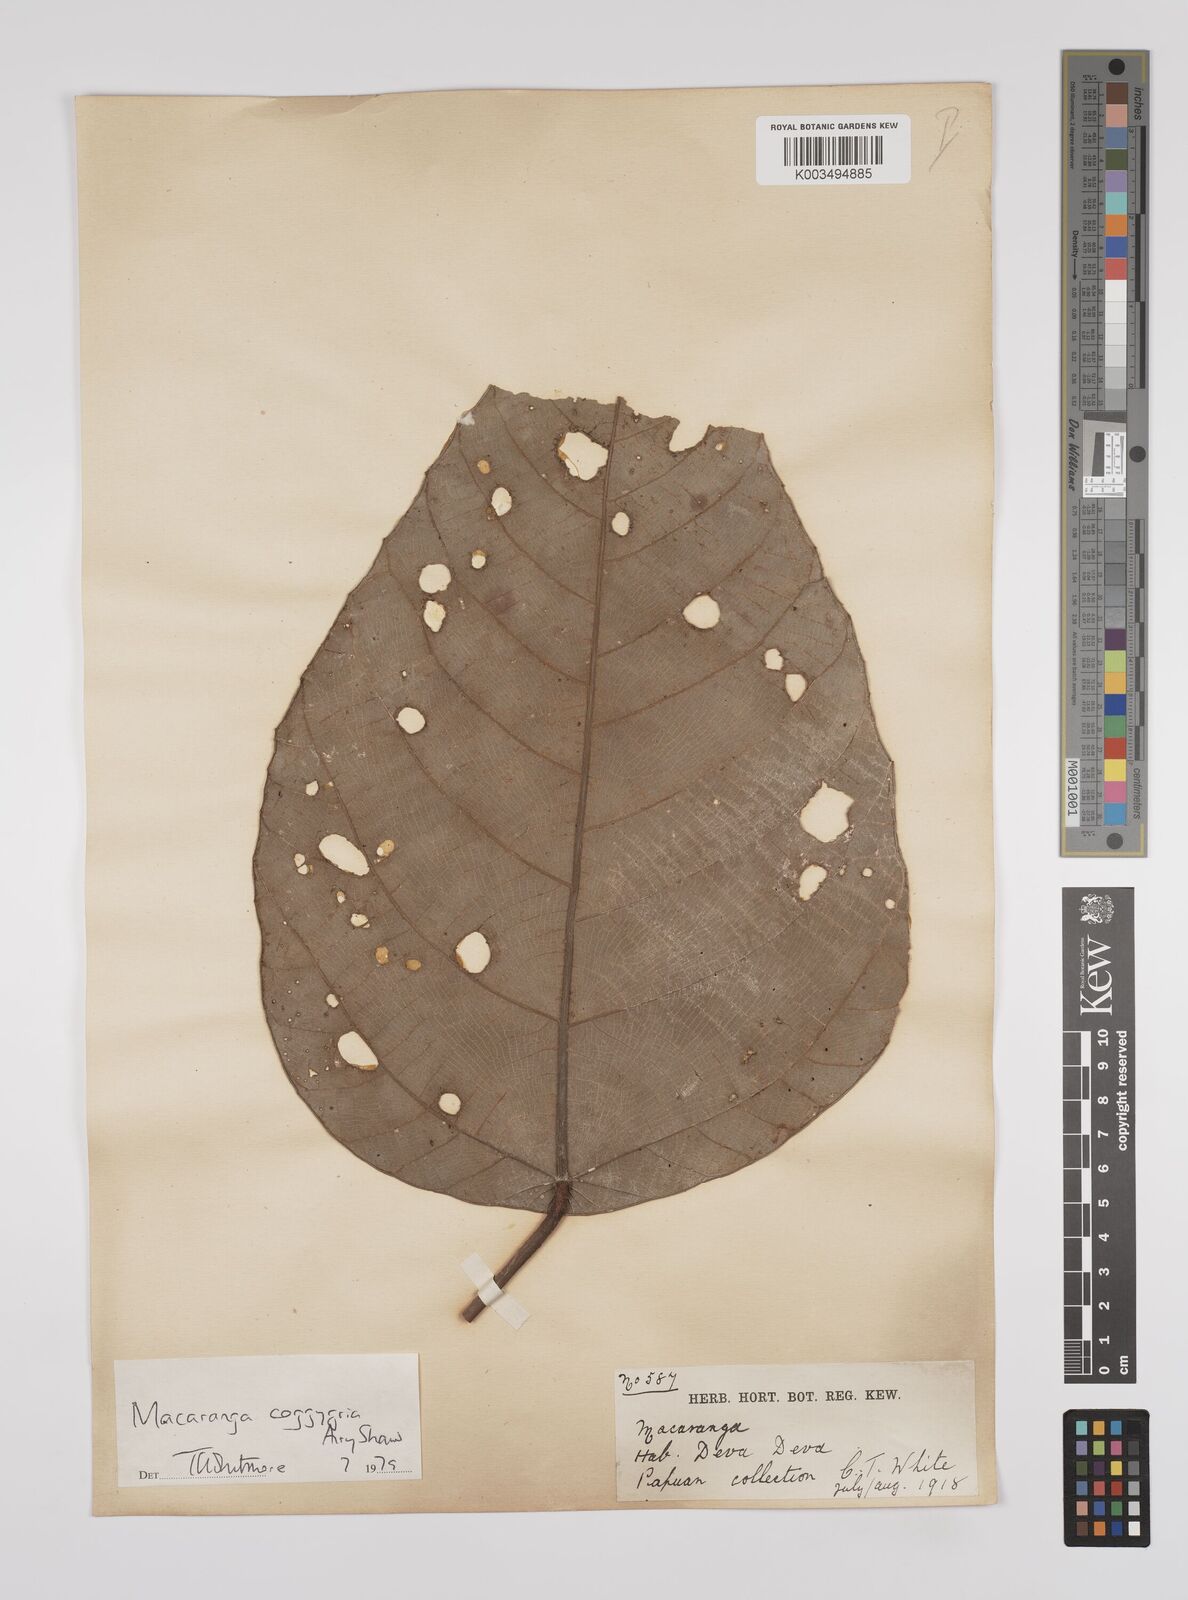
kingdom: Plantae
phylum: Tracheophyta
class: Magnoliopsida
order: Malpighiales
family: Euphorbiaceae
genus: Macaranga
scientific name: Macaranga coggygria
